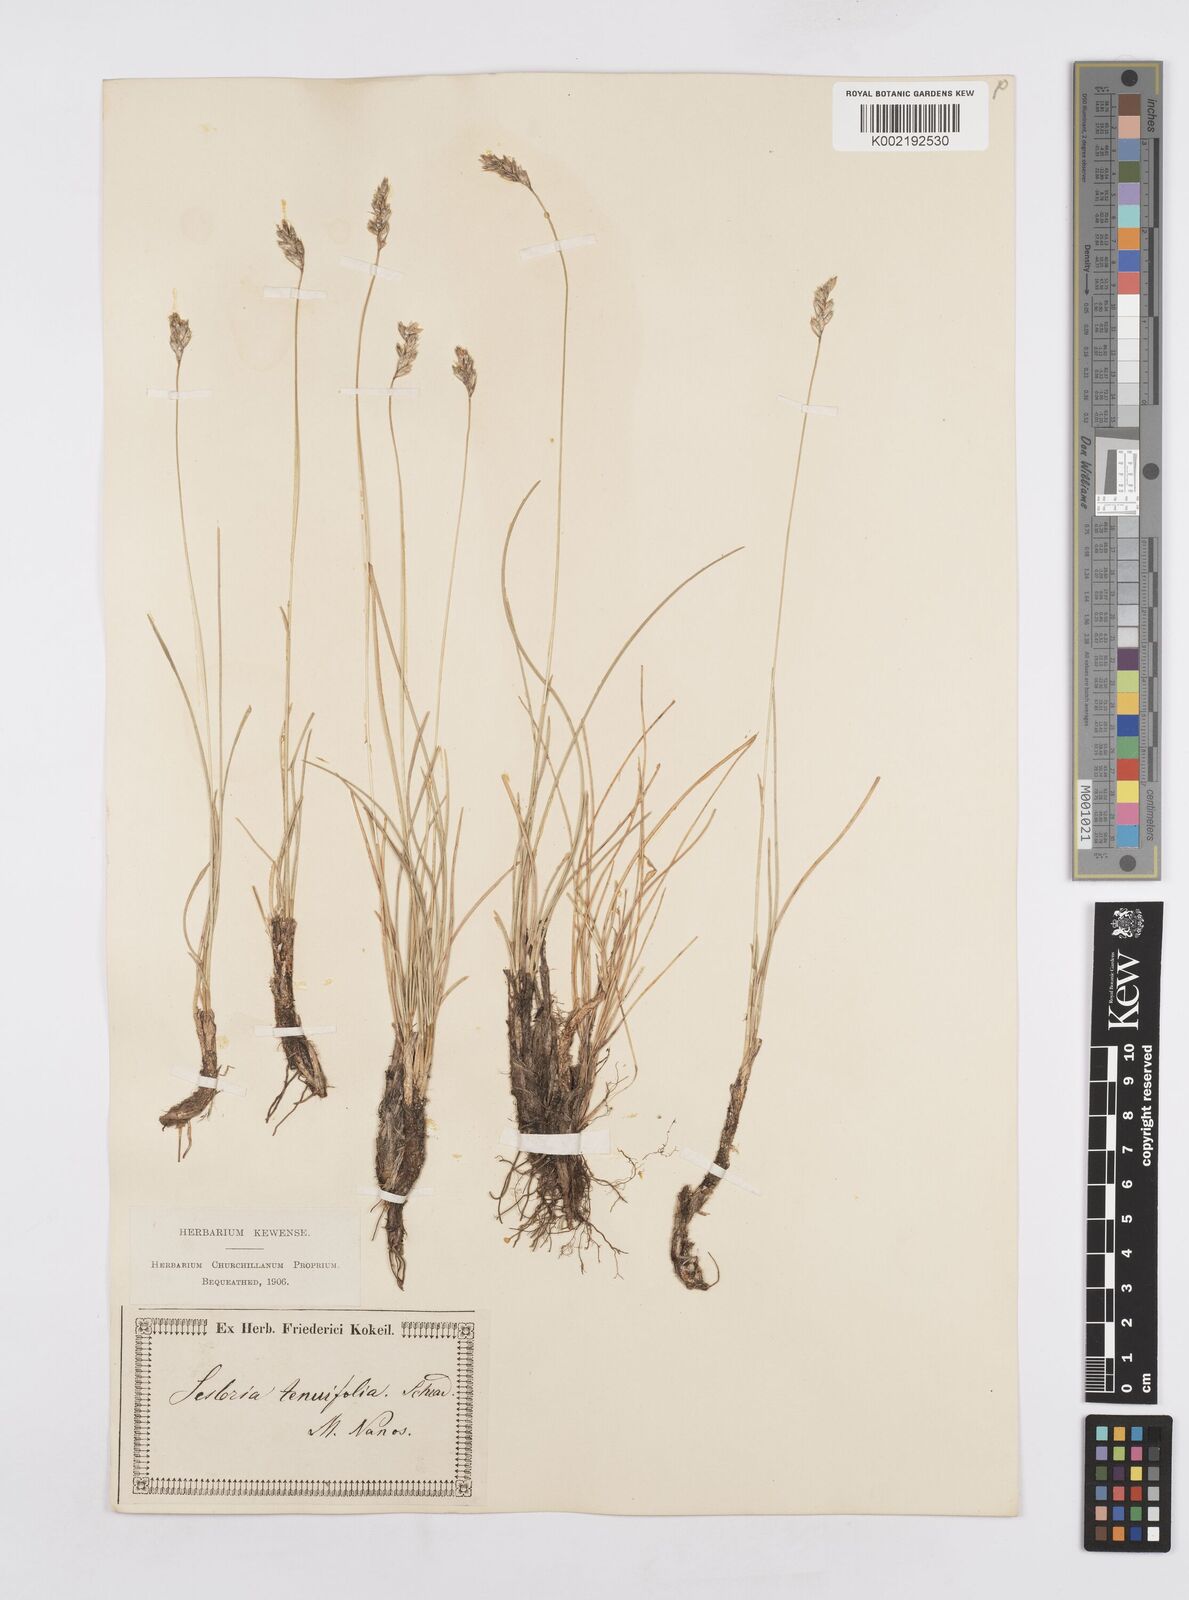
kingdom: Plantae
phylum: Tracheophyta
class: Liliopsida
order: Poales
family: Poaceae
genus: Sesleria
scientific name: Sesleria juncifolia
